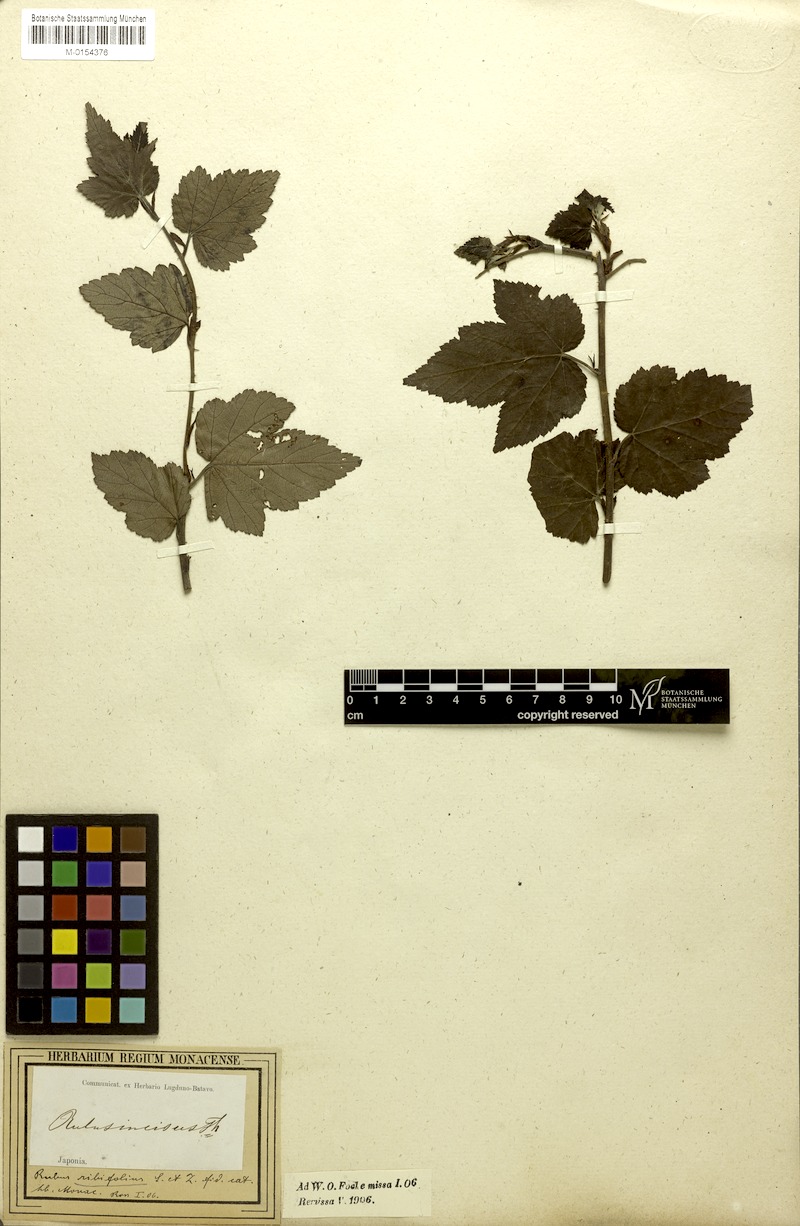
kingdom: Plantae
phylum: Tracheophyta
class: Magnoliopsida
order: Rosales
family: Rosaceae
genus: Rubus
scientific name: Rubus ribifolius
